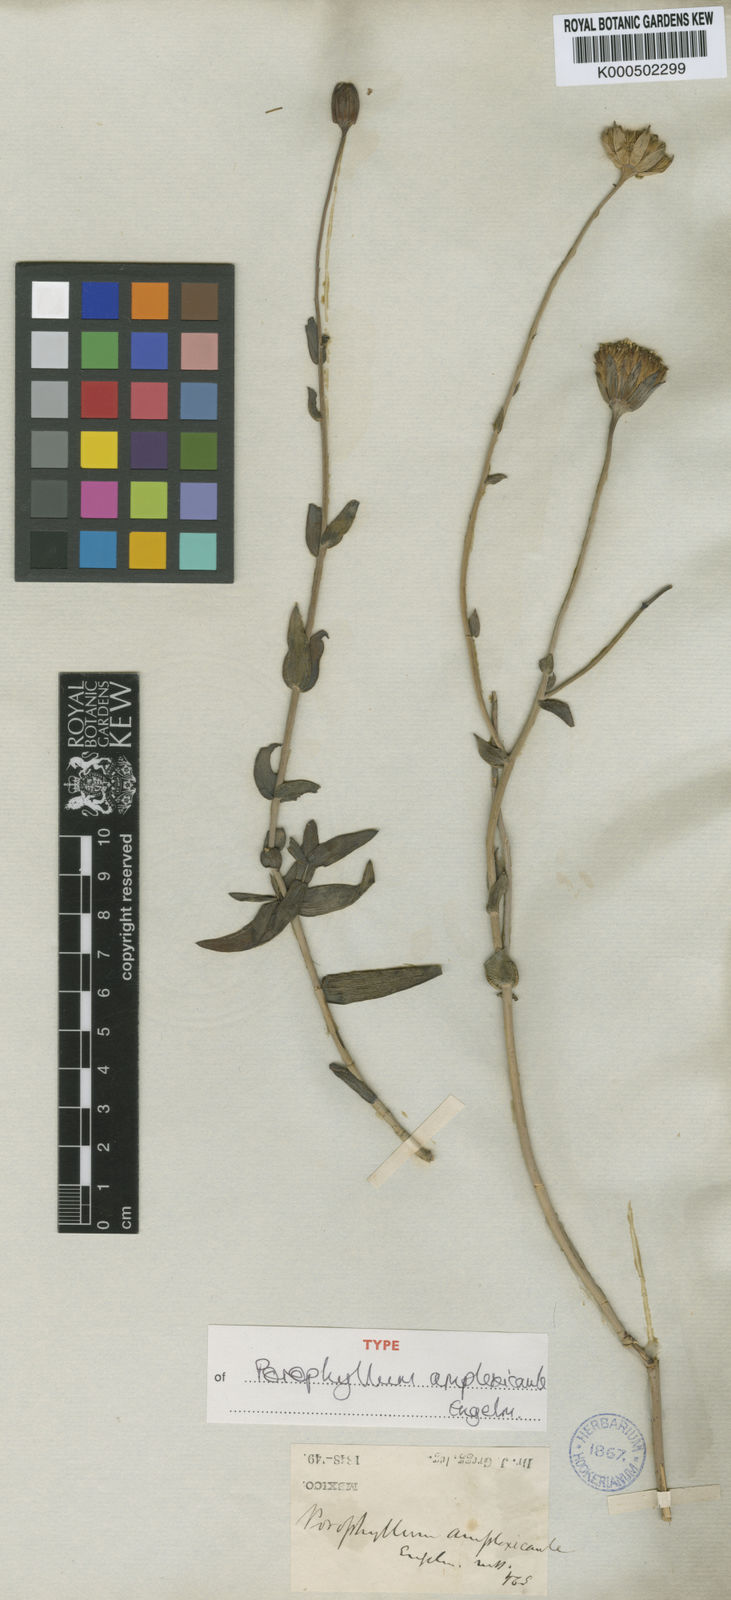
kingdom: Plantae
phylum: Tracheophyta
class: Magnoliopsida
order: Asterales
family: Asteraceae
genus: Porophyllum
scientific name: Porophyllum amplexicaule
